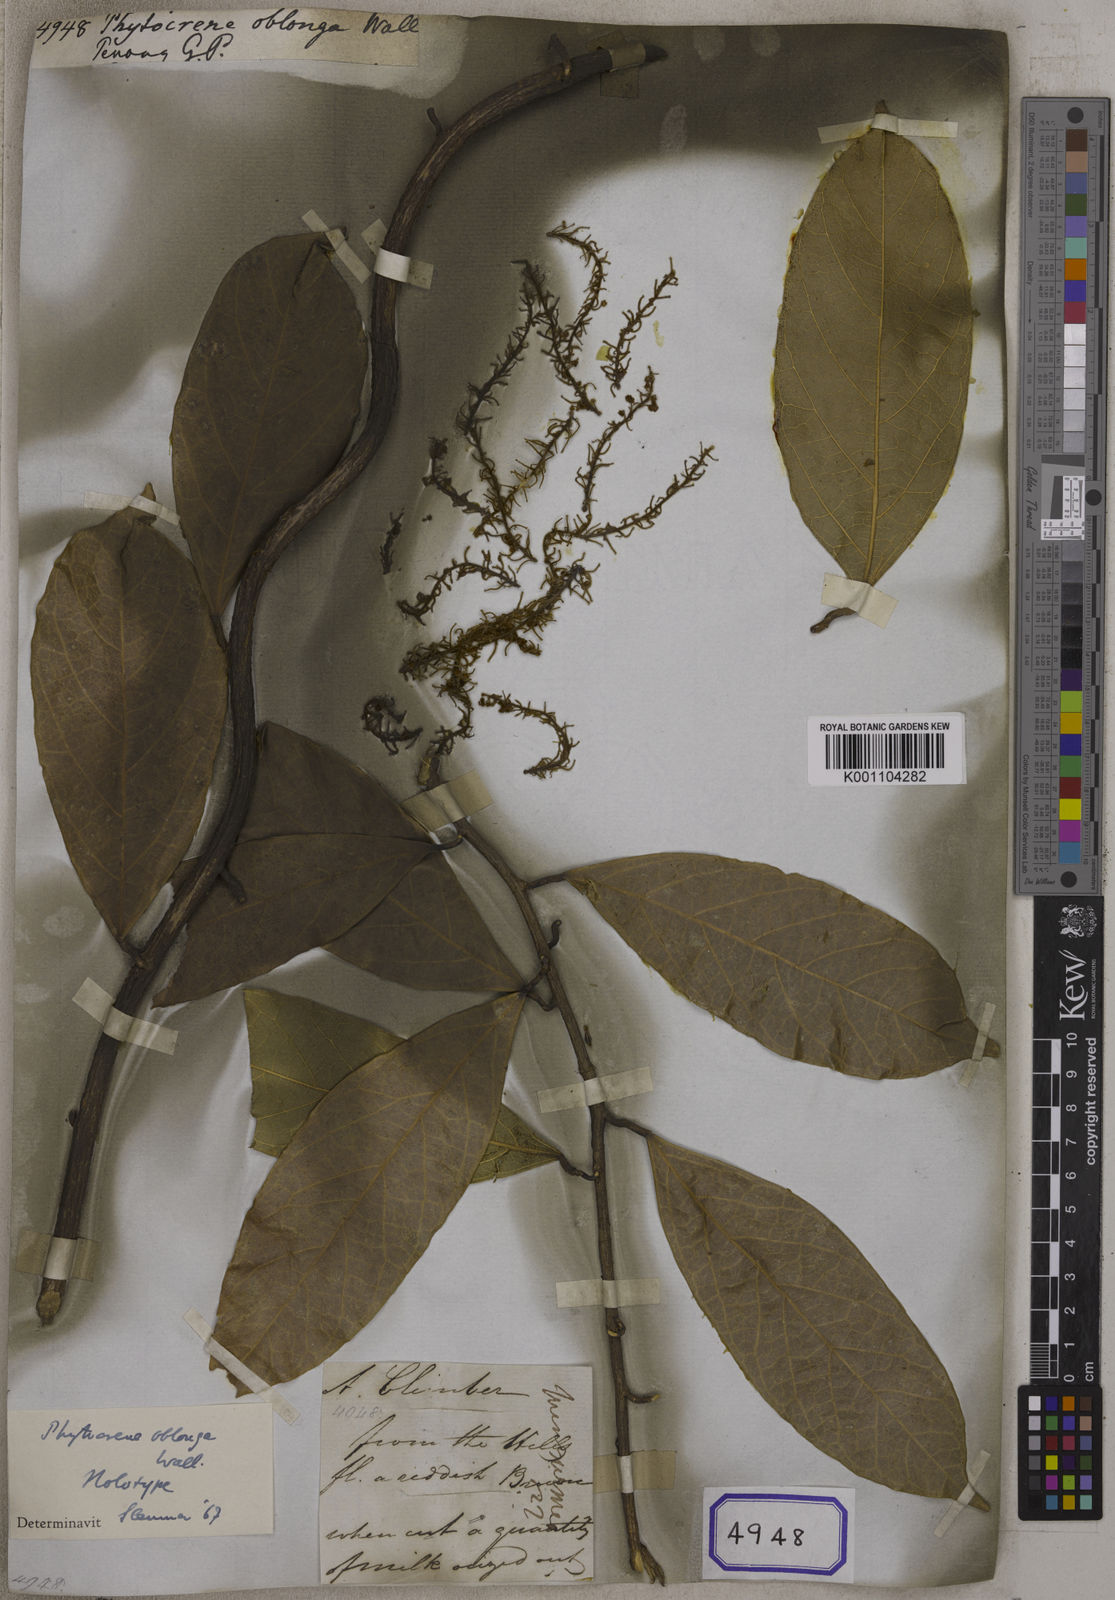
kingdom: Plantae
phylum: Tracheophyta
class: Magnoliopsida
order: Icacinales
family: Icacinaceae
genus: Phytocrene
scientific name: Phytocrene oblonga
